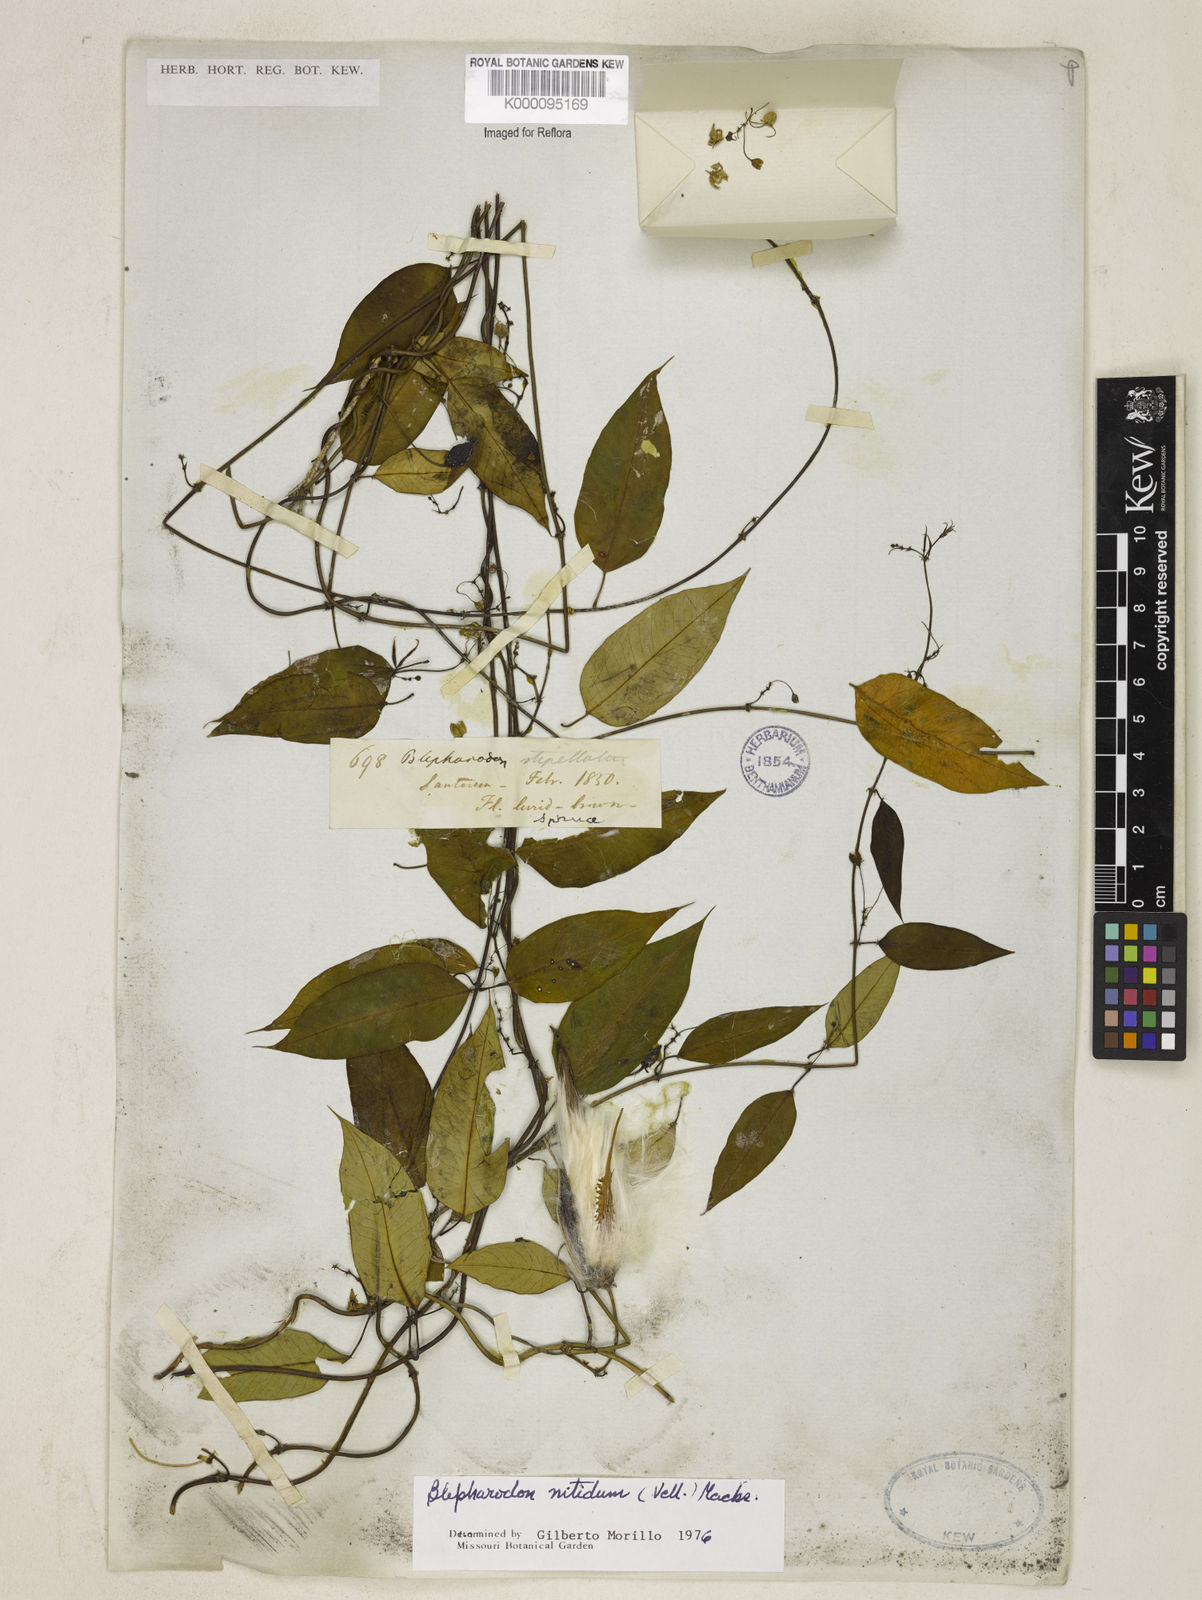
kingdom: Plantae
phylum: Tracheophyta
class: Magnoliopsida
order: Gentianales
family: Apocynaceae
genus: Blepharodon
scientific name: Blepharodon pictum
